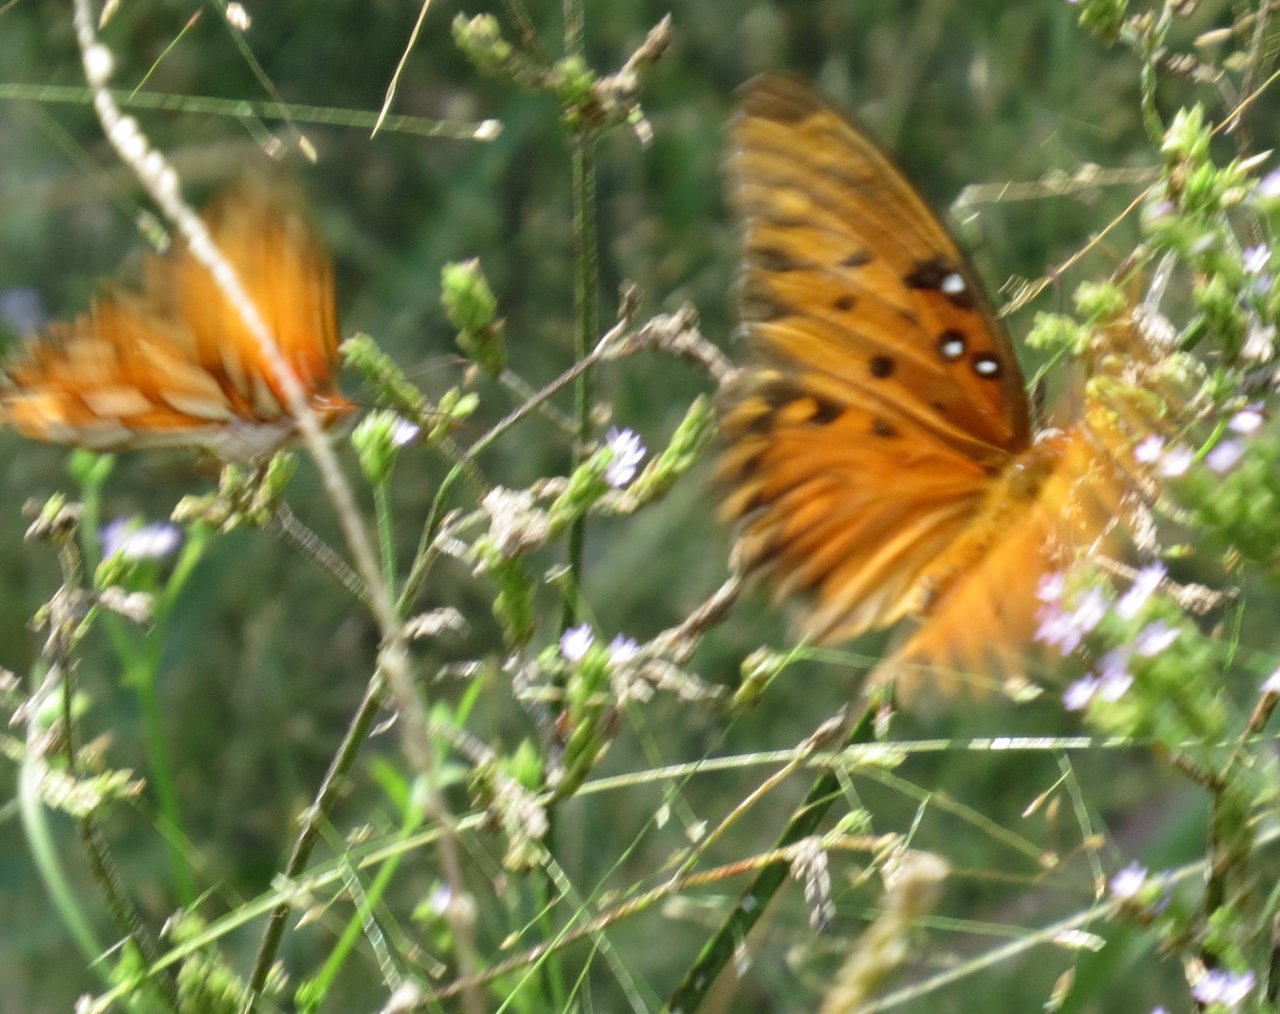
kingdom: Animalia
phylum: Arthropoda
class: Insecta
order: Lepidoptera
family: Nymphalidae
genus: Dione
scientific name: Dione vanillae
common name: Gulf Fritillary
